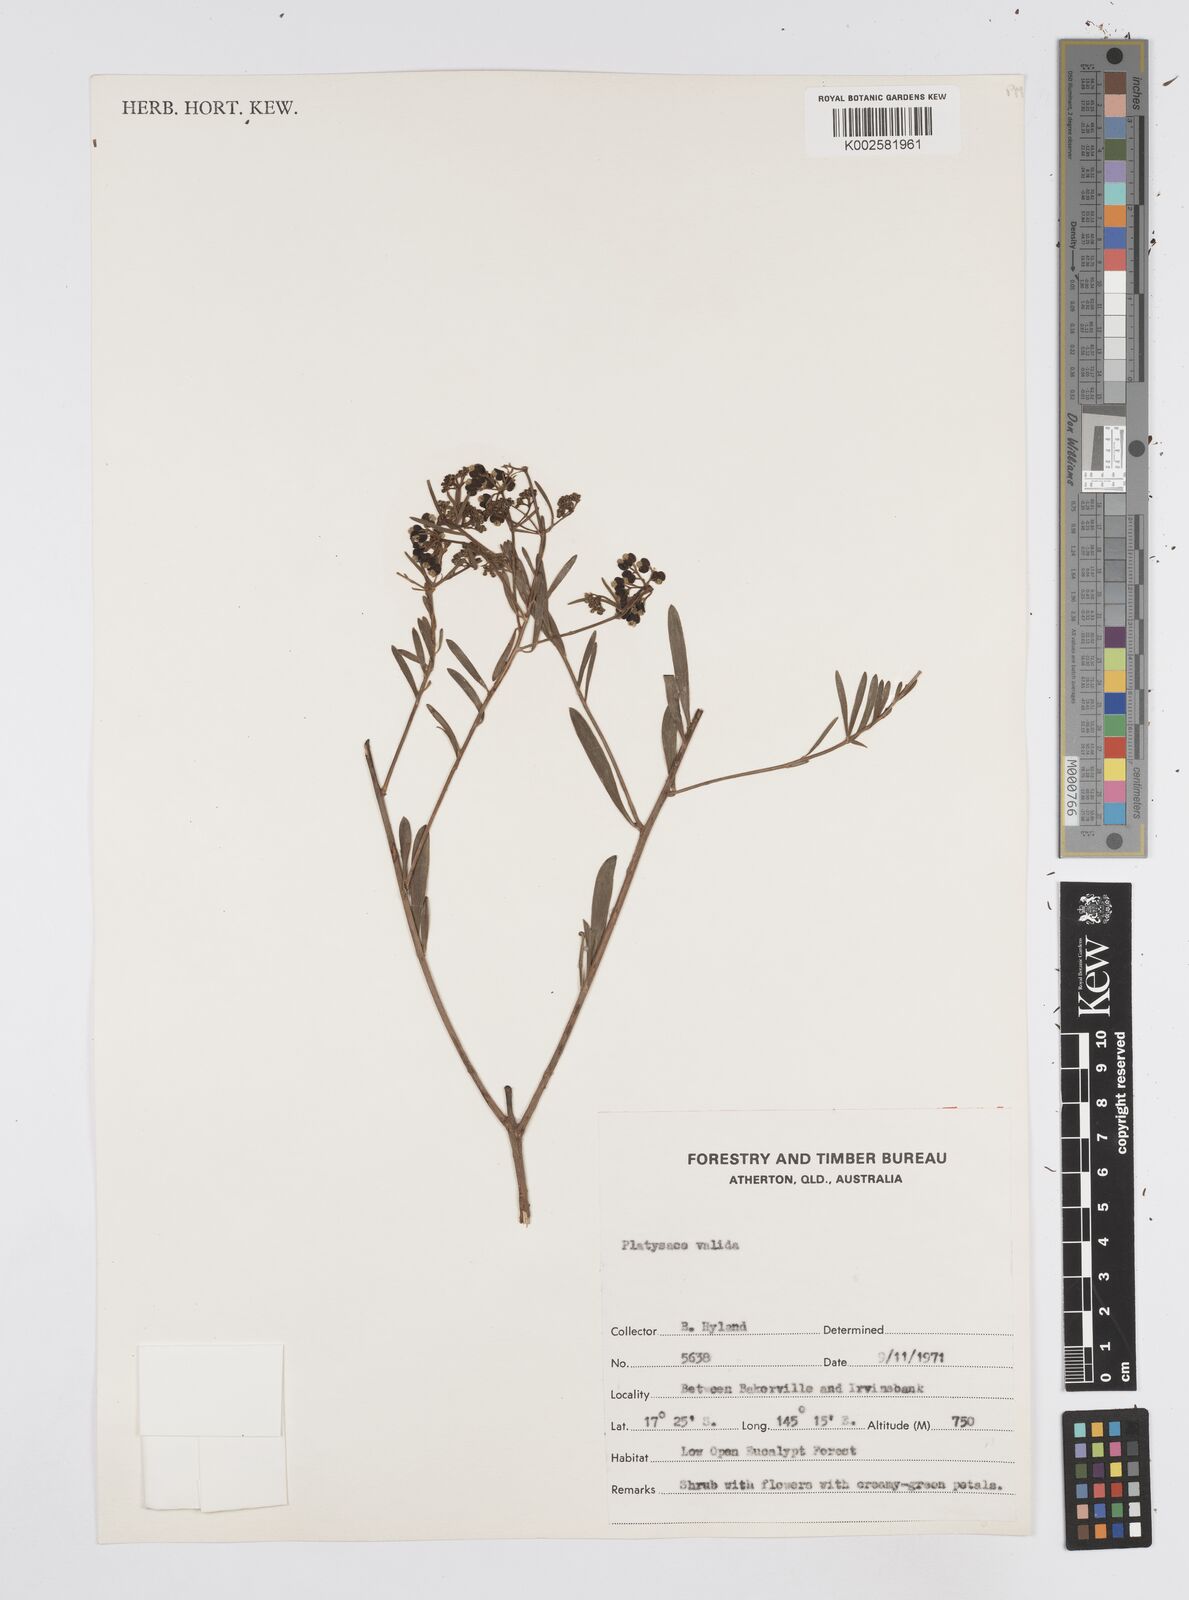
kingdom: Plantae
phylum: Tracheophyta
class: Magnoliopsida
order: Apiales
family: Apiaceae
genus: Platysace
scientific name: Platysace valida
